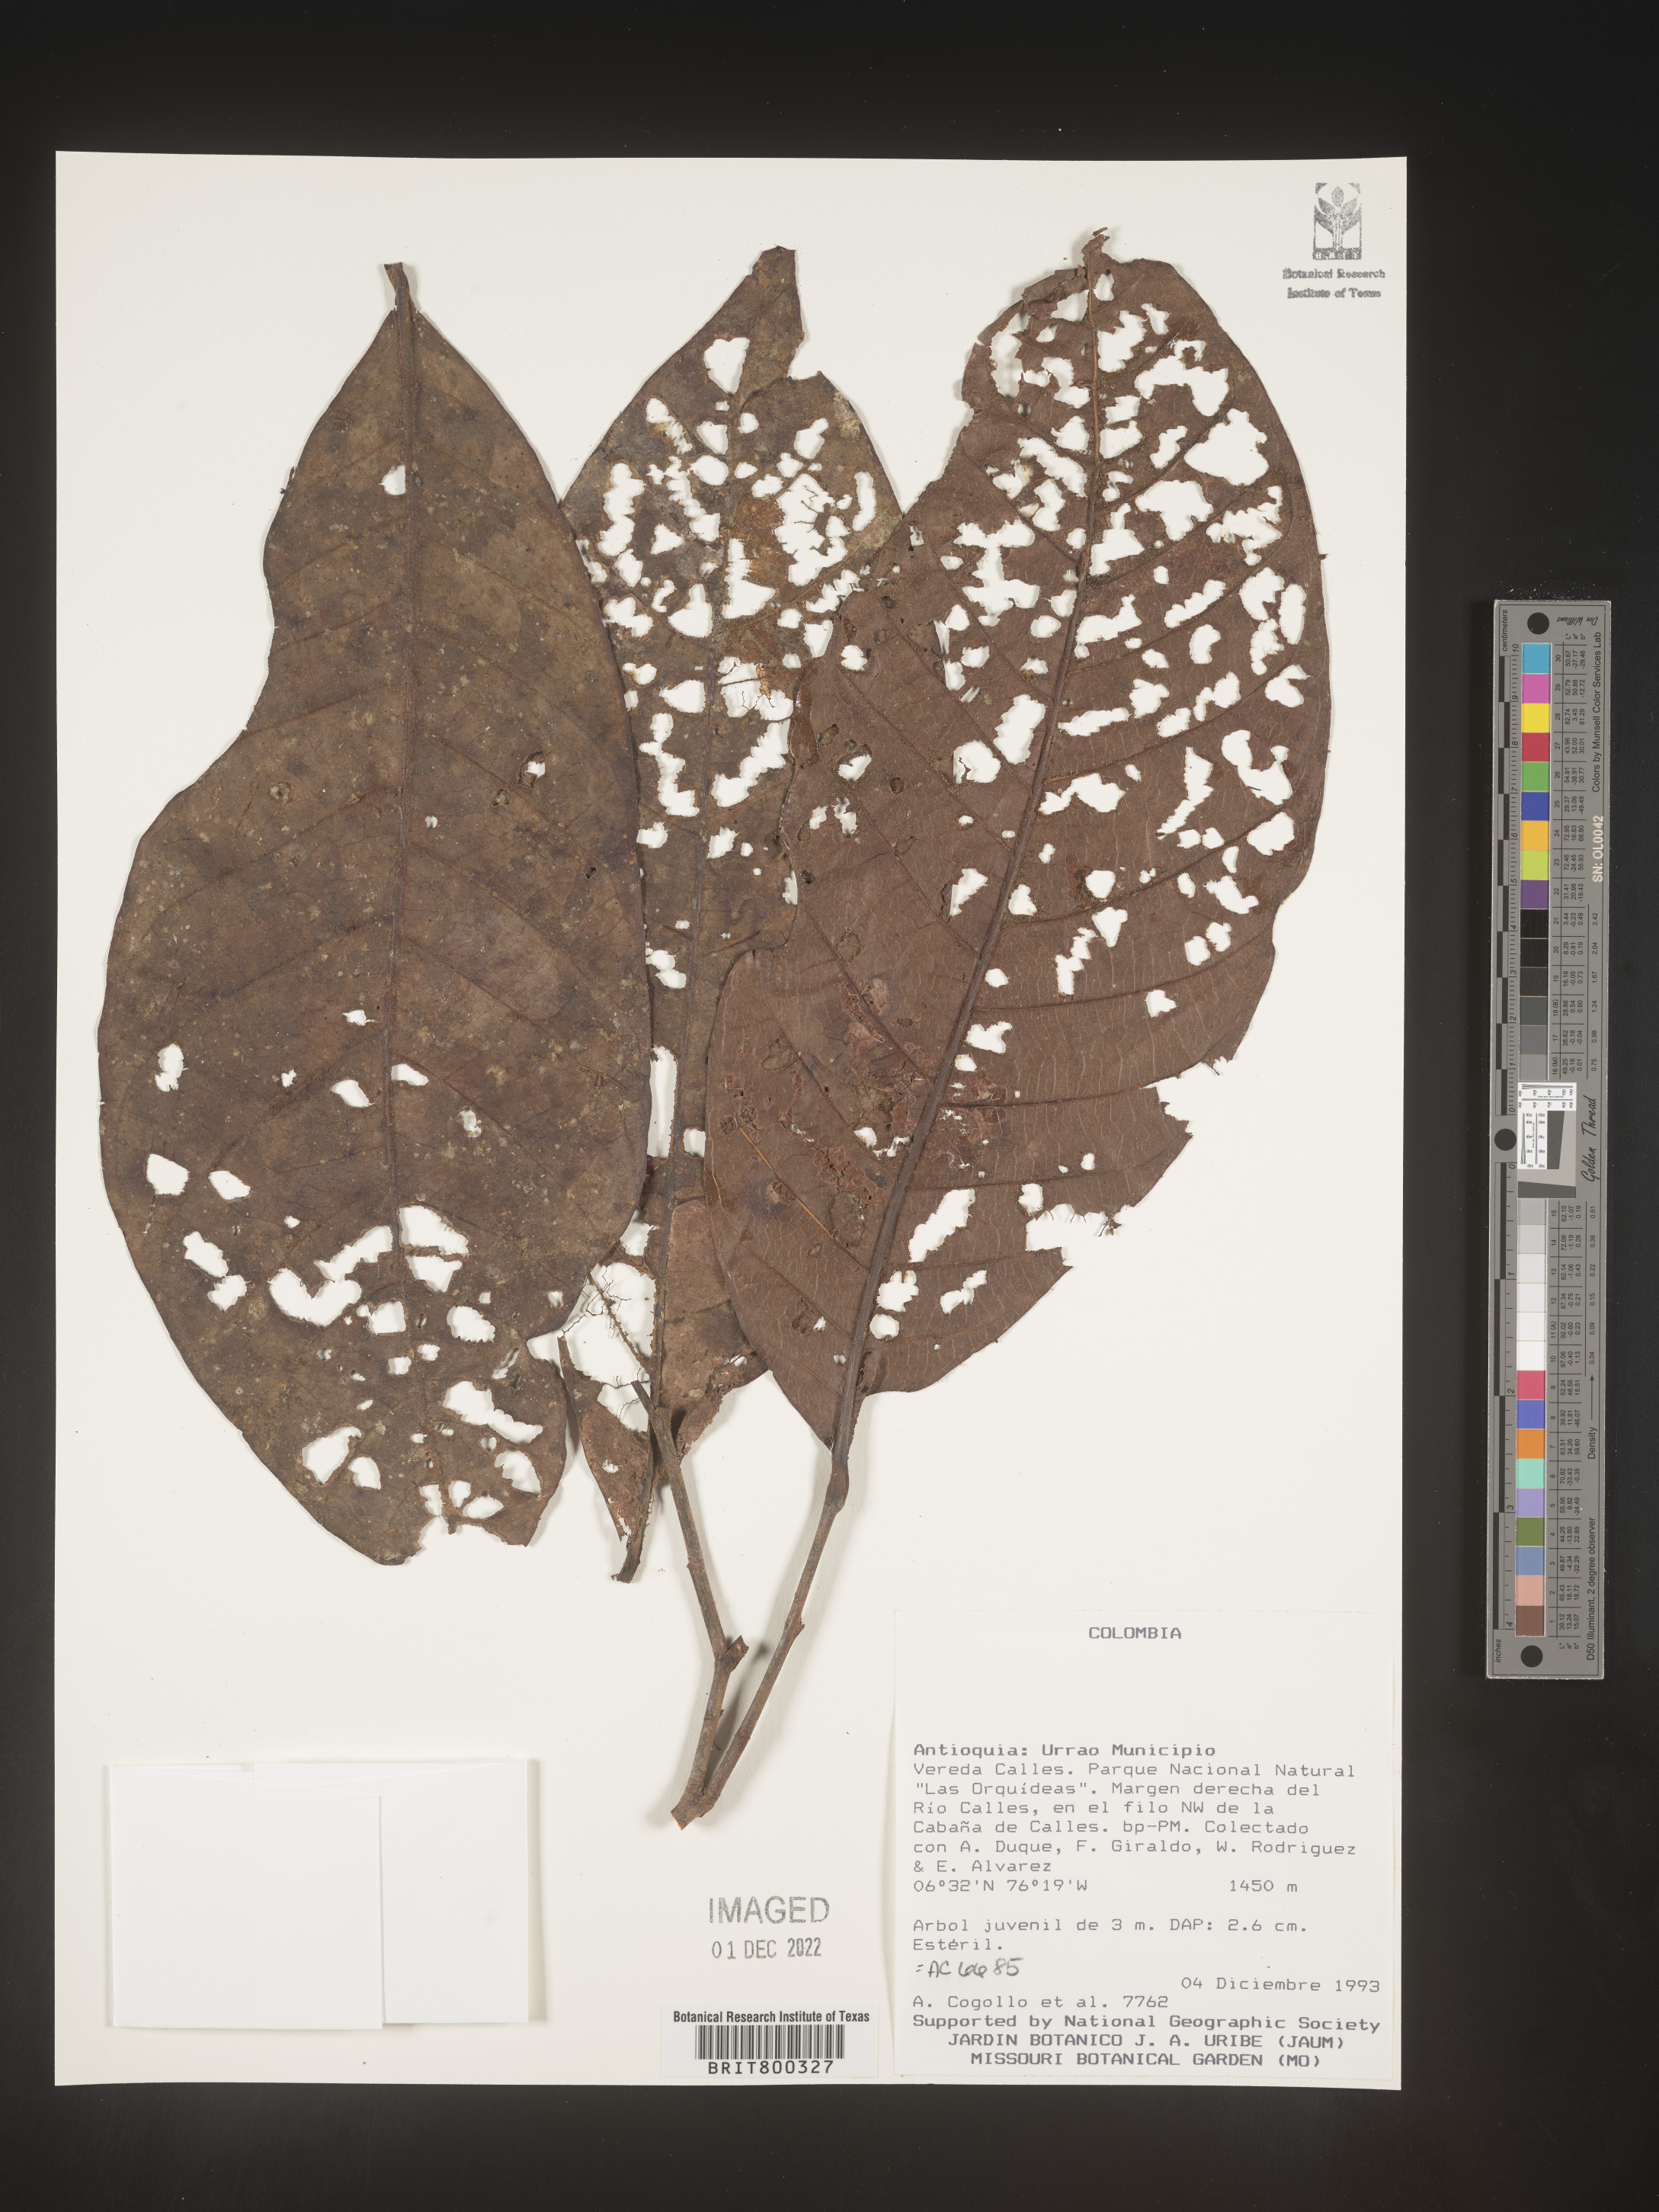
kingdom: Plantae
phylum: Tracheophyta
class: Magnoliopsida
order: Malpighiales
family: Chrysobalanaceae
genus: Licania
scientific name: Licania
